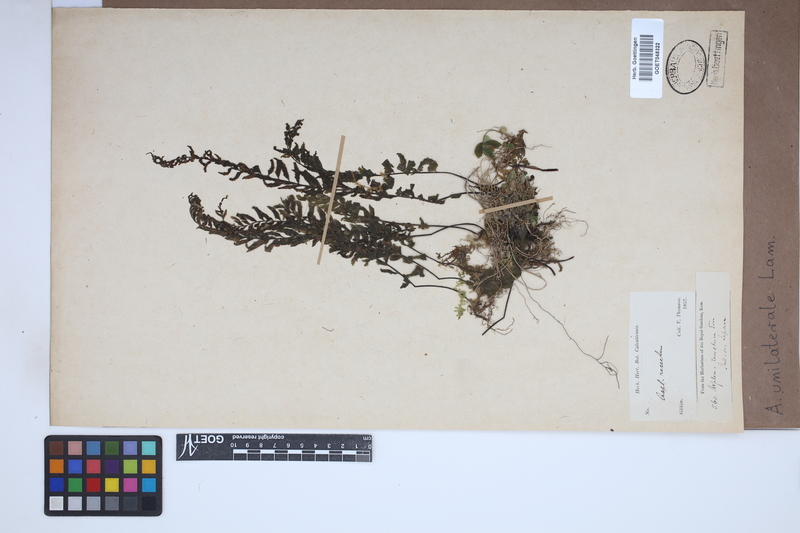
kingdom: Plantae
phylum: Tracheophyta
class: Polypodiopsida
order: Polypodiales
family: Aspleniaceae
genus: Hymenasplenium
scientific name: Hymenasplenium unilaterale
